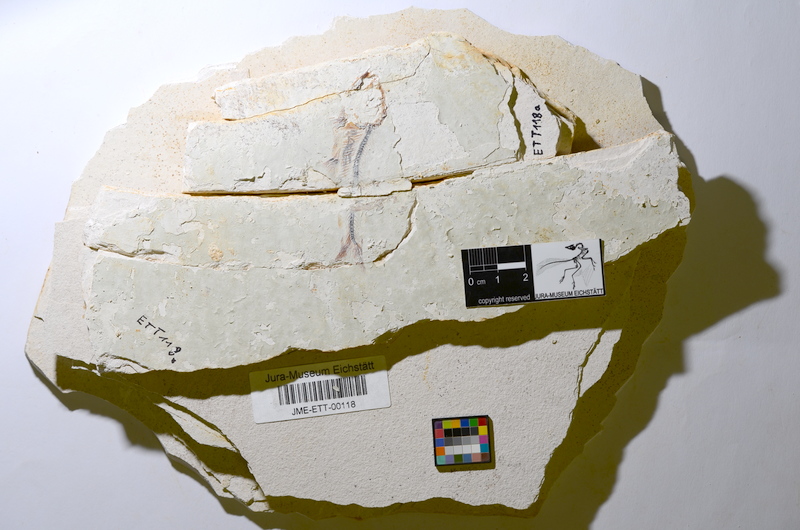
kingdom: Animalia
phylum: Chordata
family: Ascalaboidae
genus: Ebertichthys
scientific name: Ebertichthys ettlingensis
